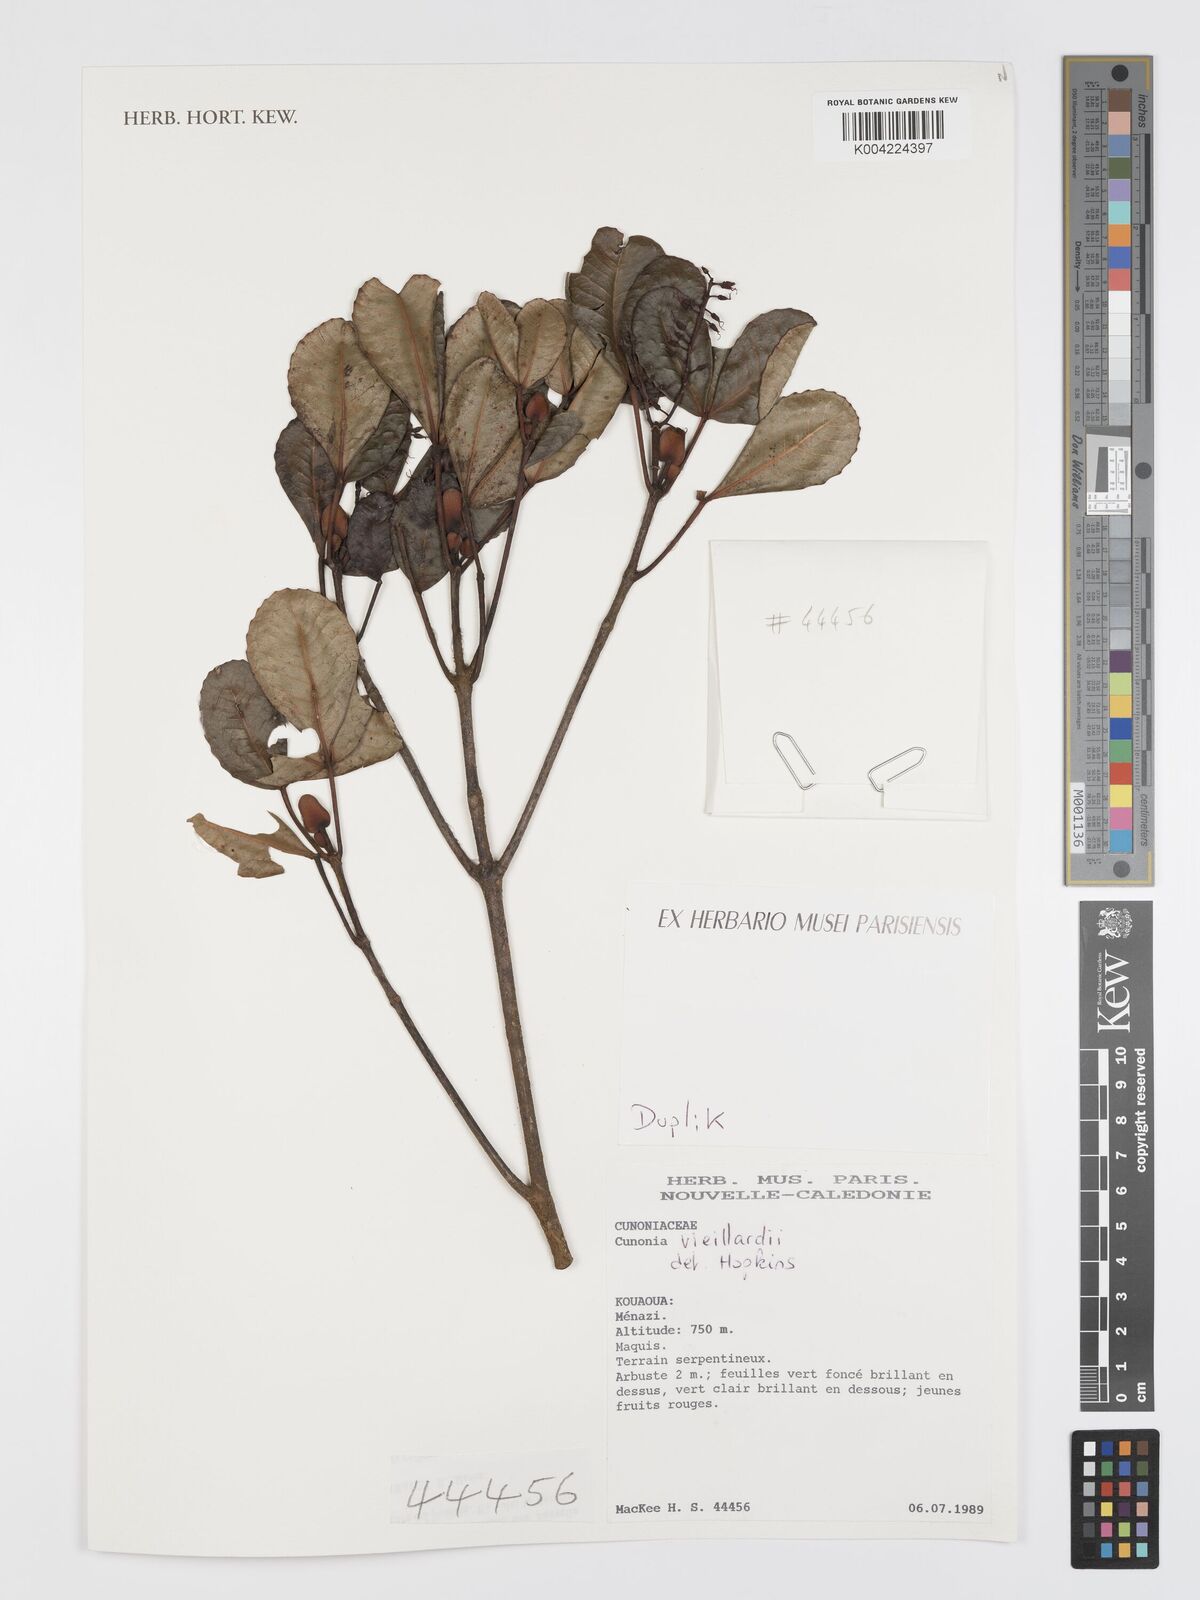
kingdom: Plantae
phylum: Tracheophyta
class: Magnoliopsida
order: Oxalidales
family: Cunoniaceae
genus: Cunonia
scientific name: Cunonia vieillardii
